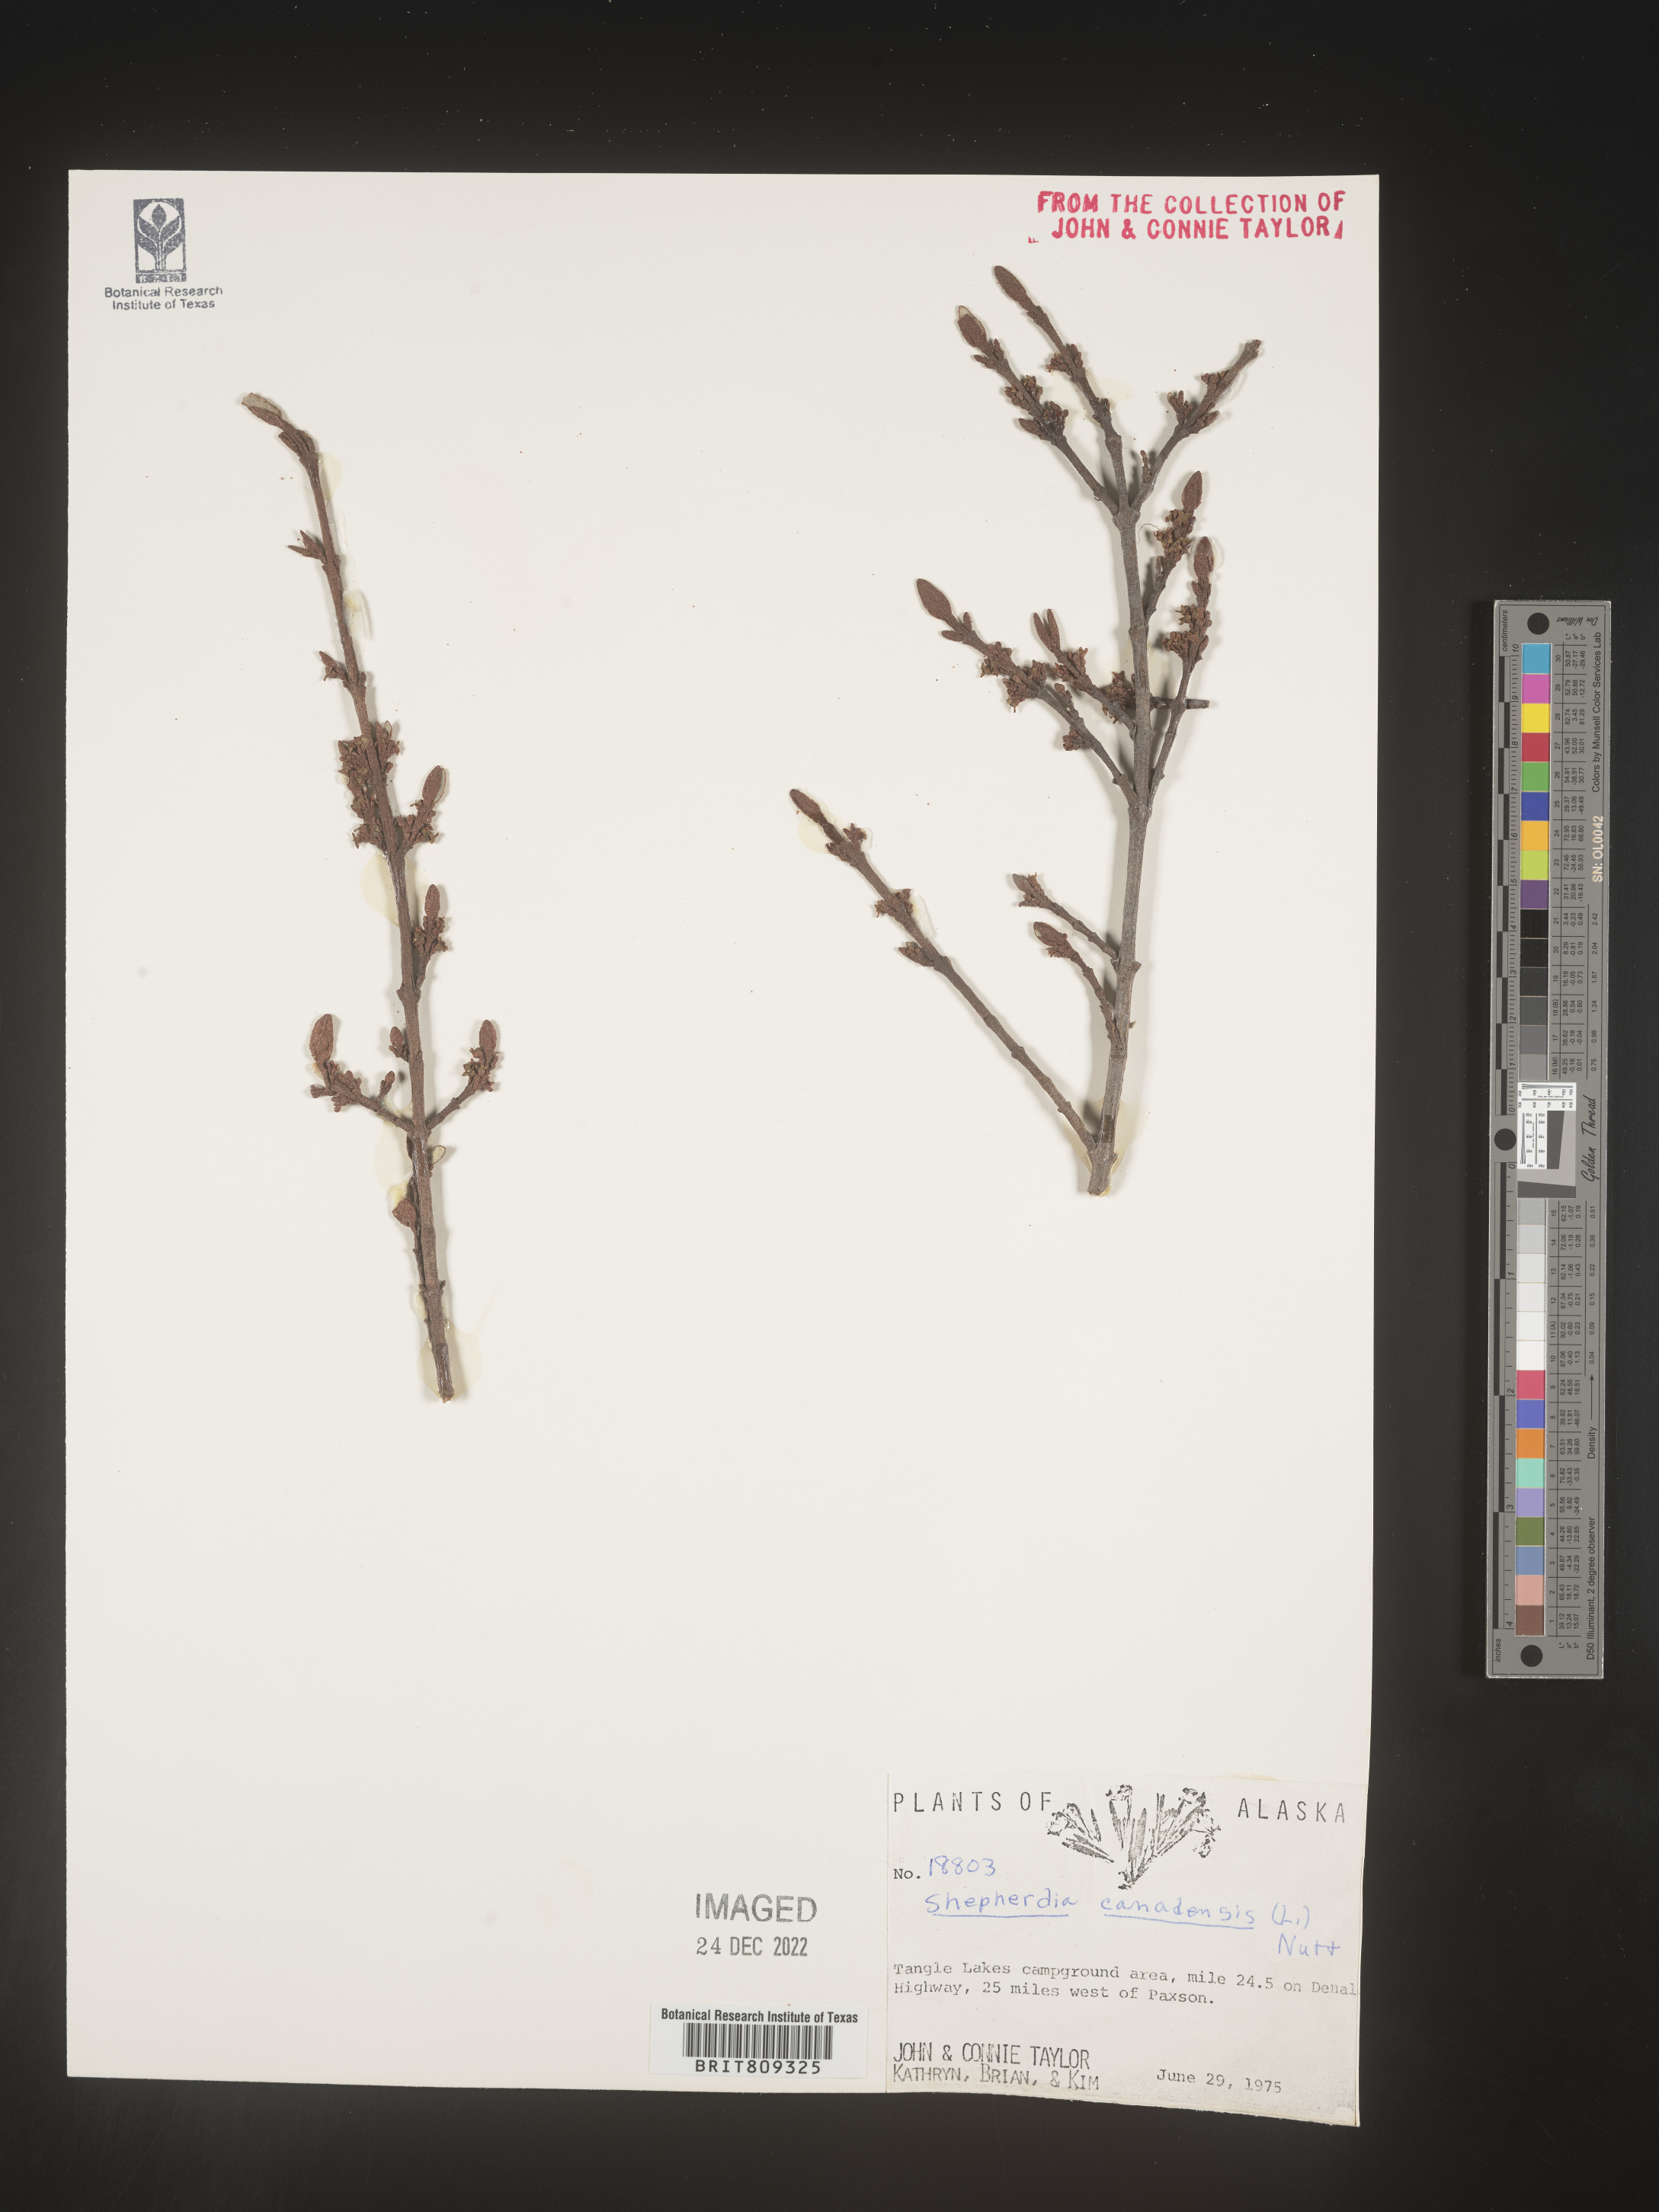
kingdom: Plantae
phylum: Tracheophyta
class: Magnoliopsida
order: Rosales
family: Elaeagnaceae
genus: Shepherdia
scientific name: Shepherdia canadensis
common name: Soapberry
